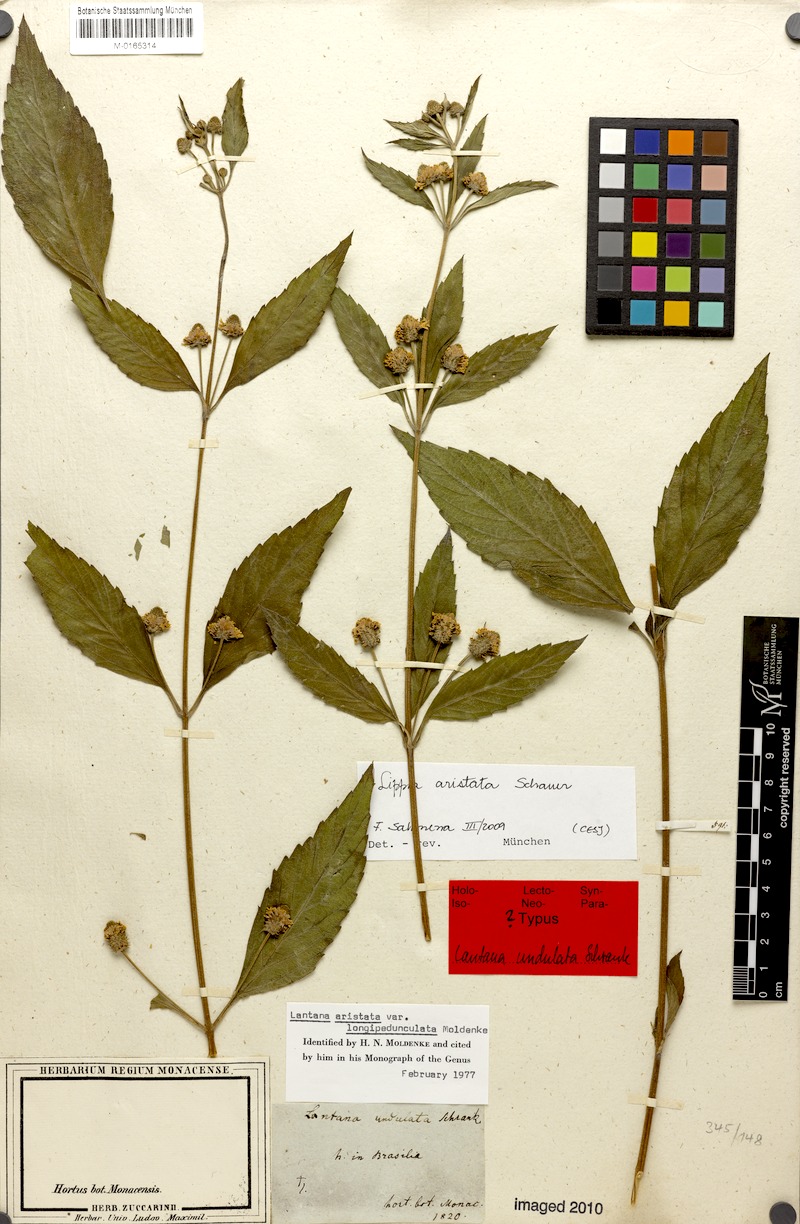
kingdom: Plantae
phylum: Tracheophyta
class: Magnoliopsida
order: Lamiales
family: Verbenaceae
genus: Lantana
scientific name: Lantana undulata
